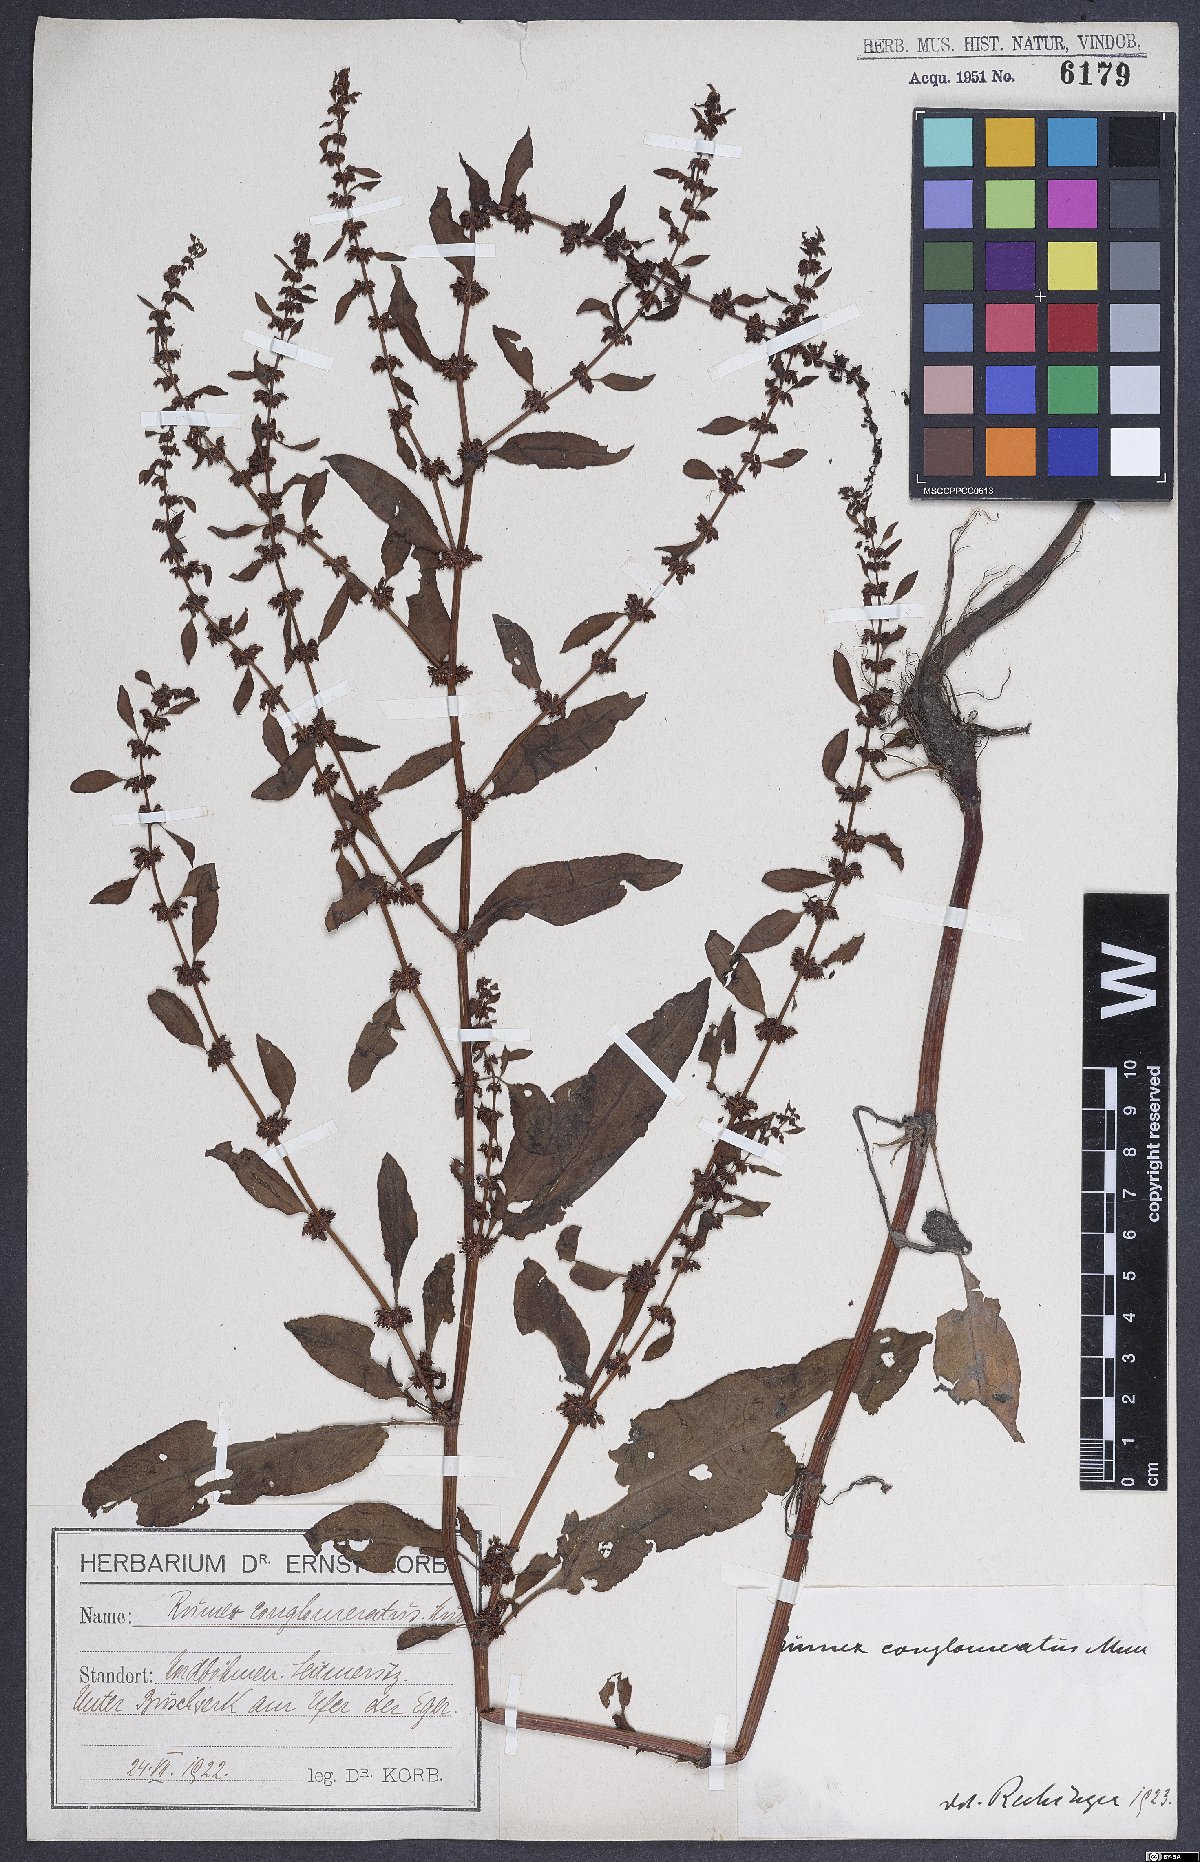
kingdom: Plantae
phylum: Tracheophyta
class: Magnoliopsida
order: Caryophyllales
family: Polygonaceae
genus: Rumex
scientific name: Rumex conglomeratus
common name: Clustered dock
